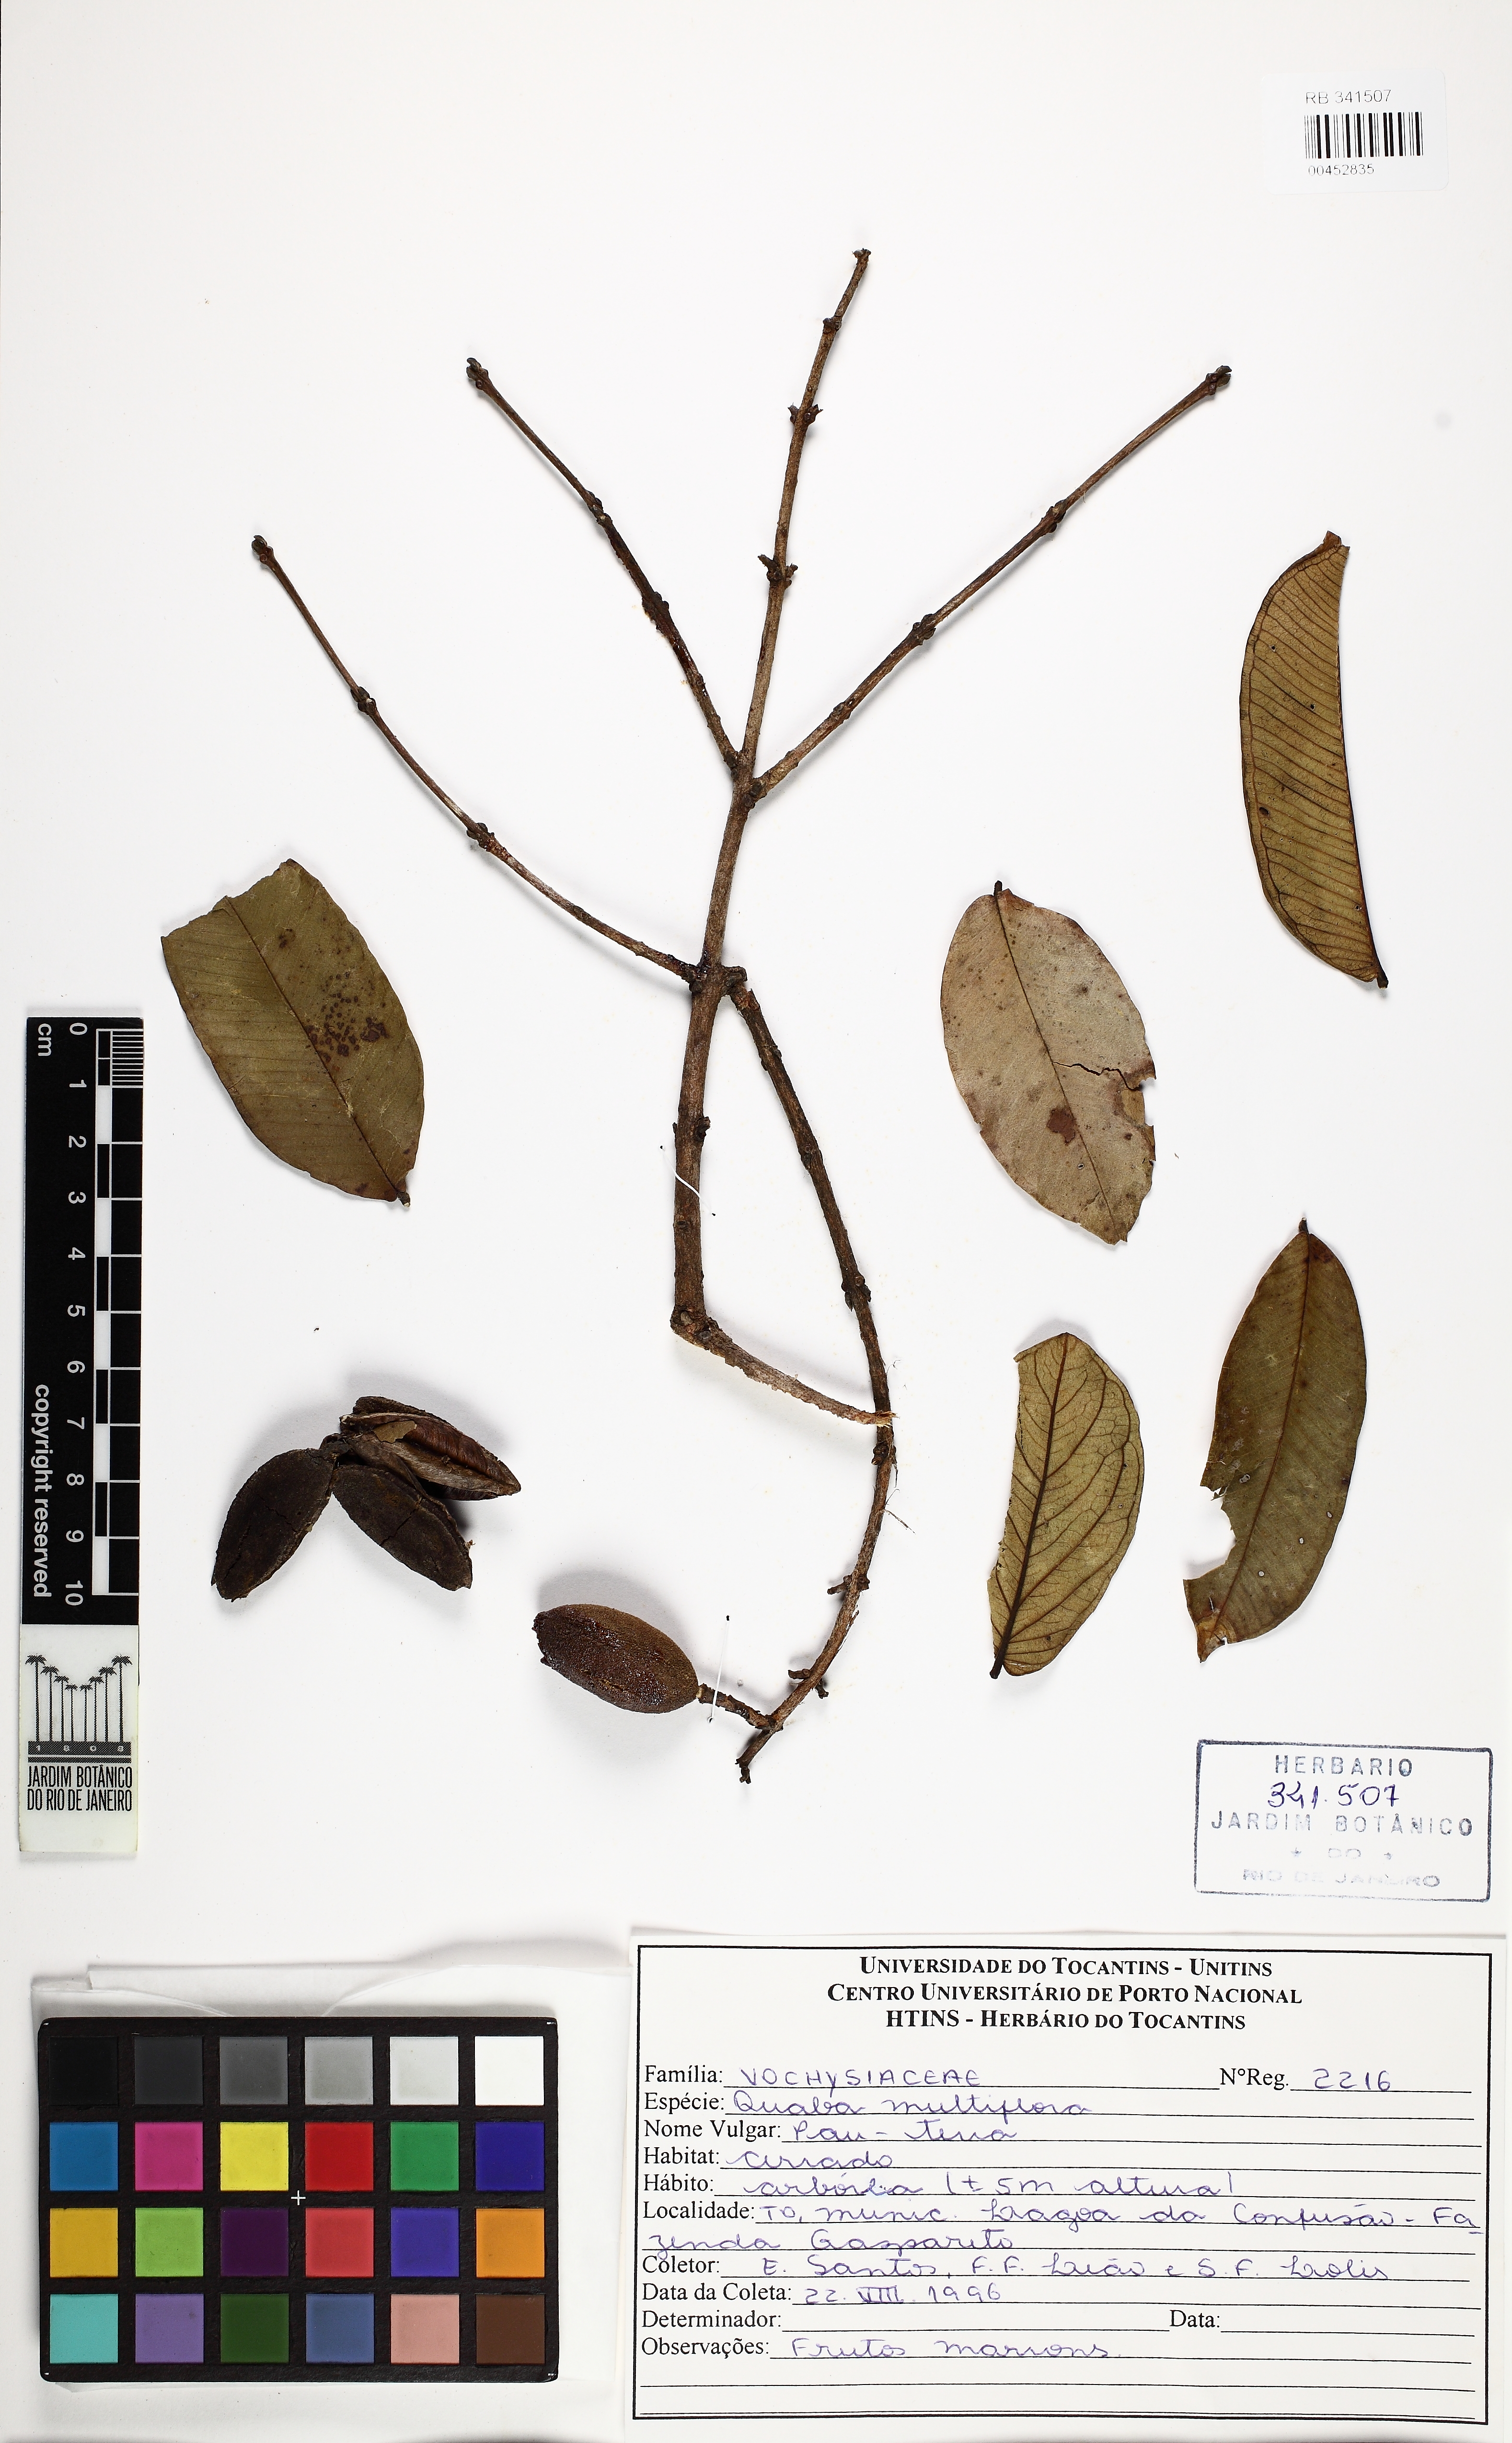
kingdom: Plantae
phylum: Tracheophyta
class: Magnoliopsida
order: Myrtales
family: Vochysiaceae
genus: Qualea
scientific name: Qualea multiflora
